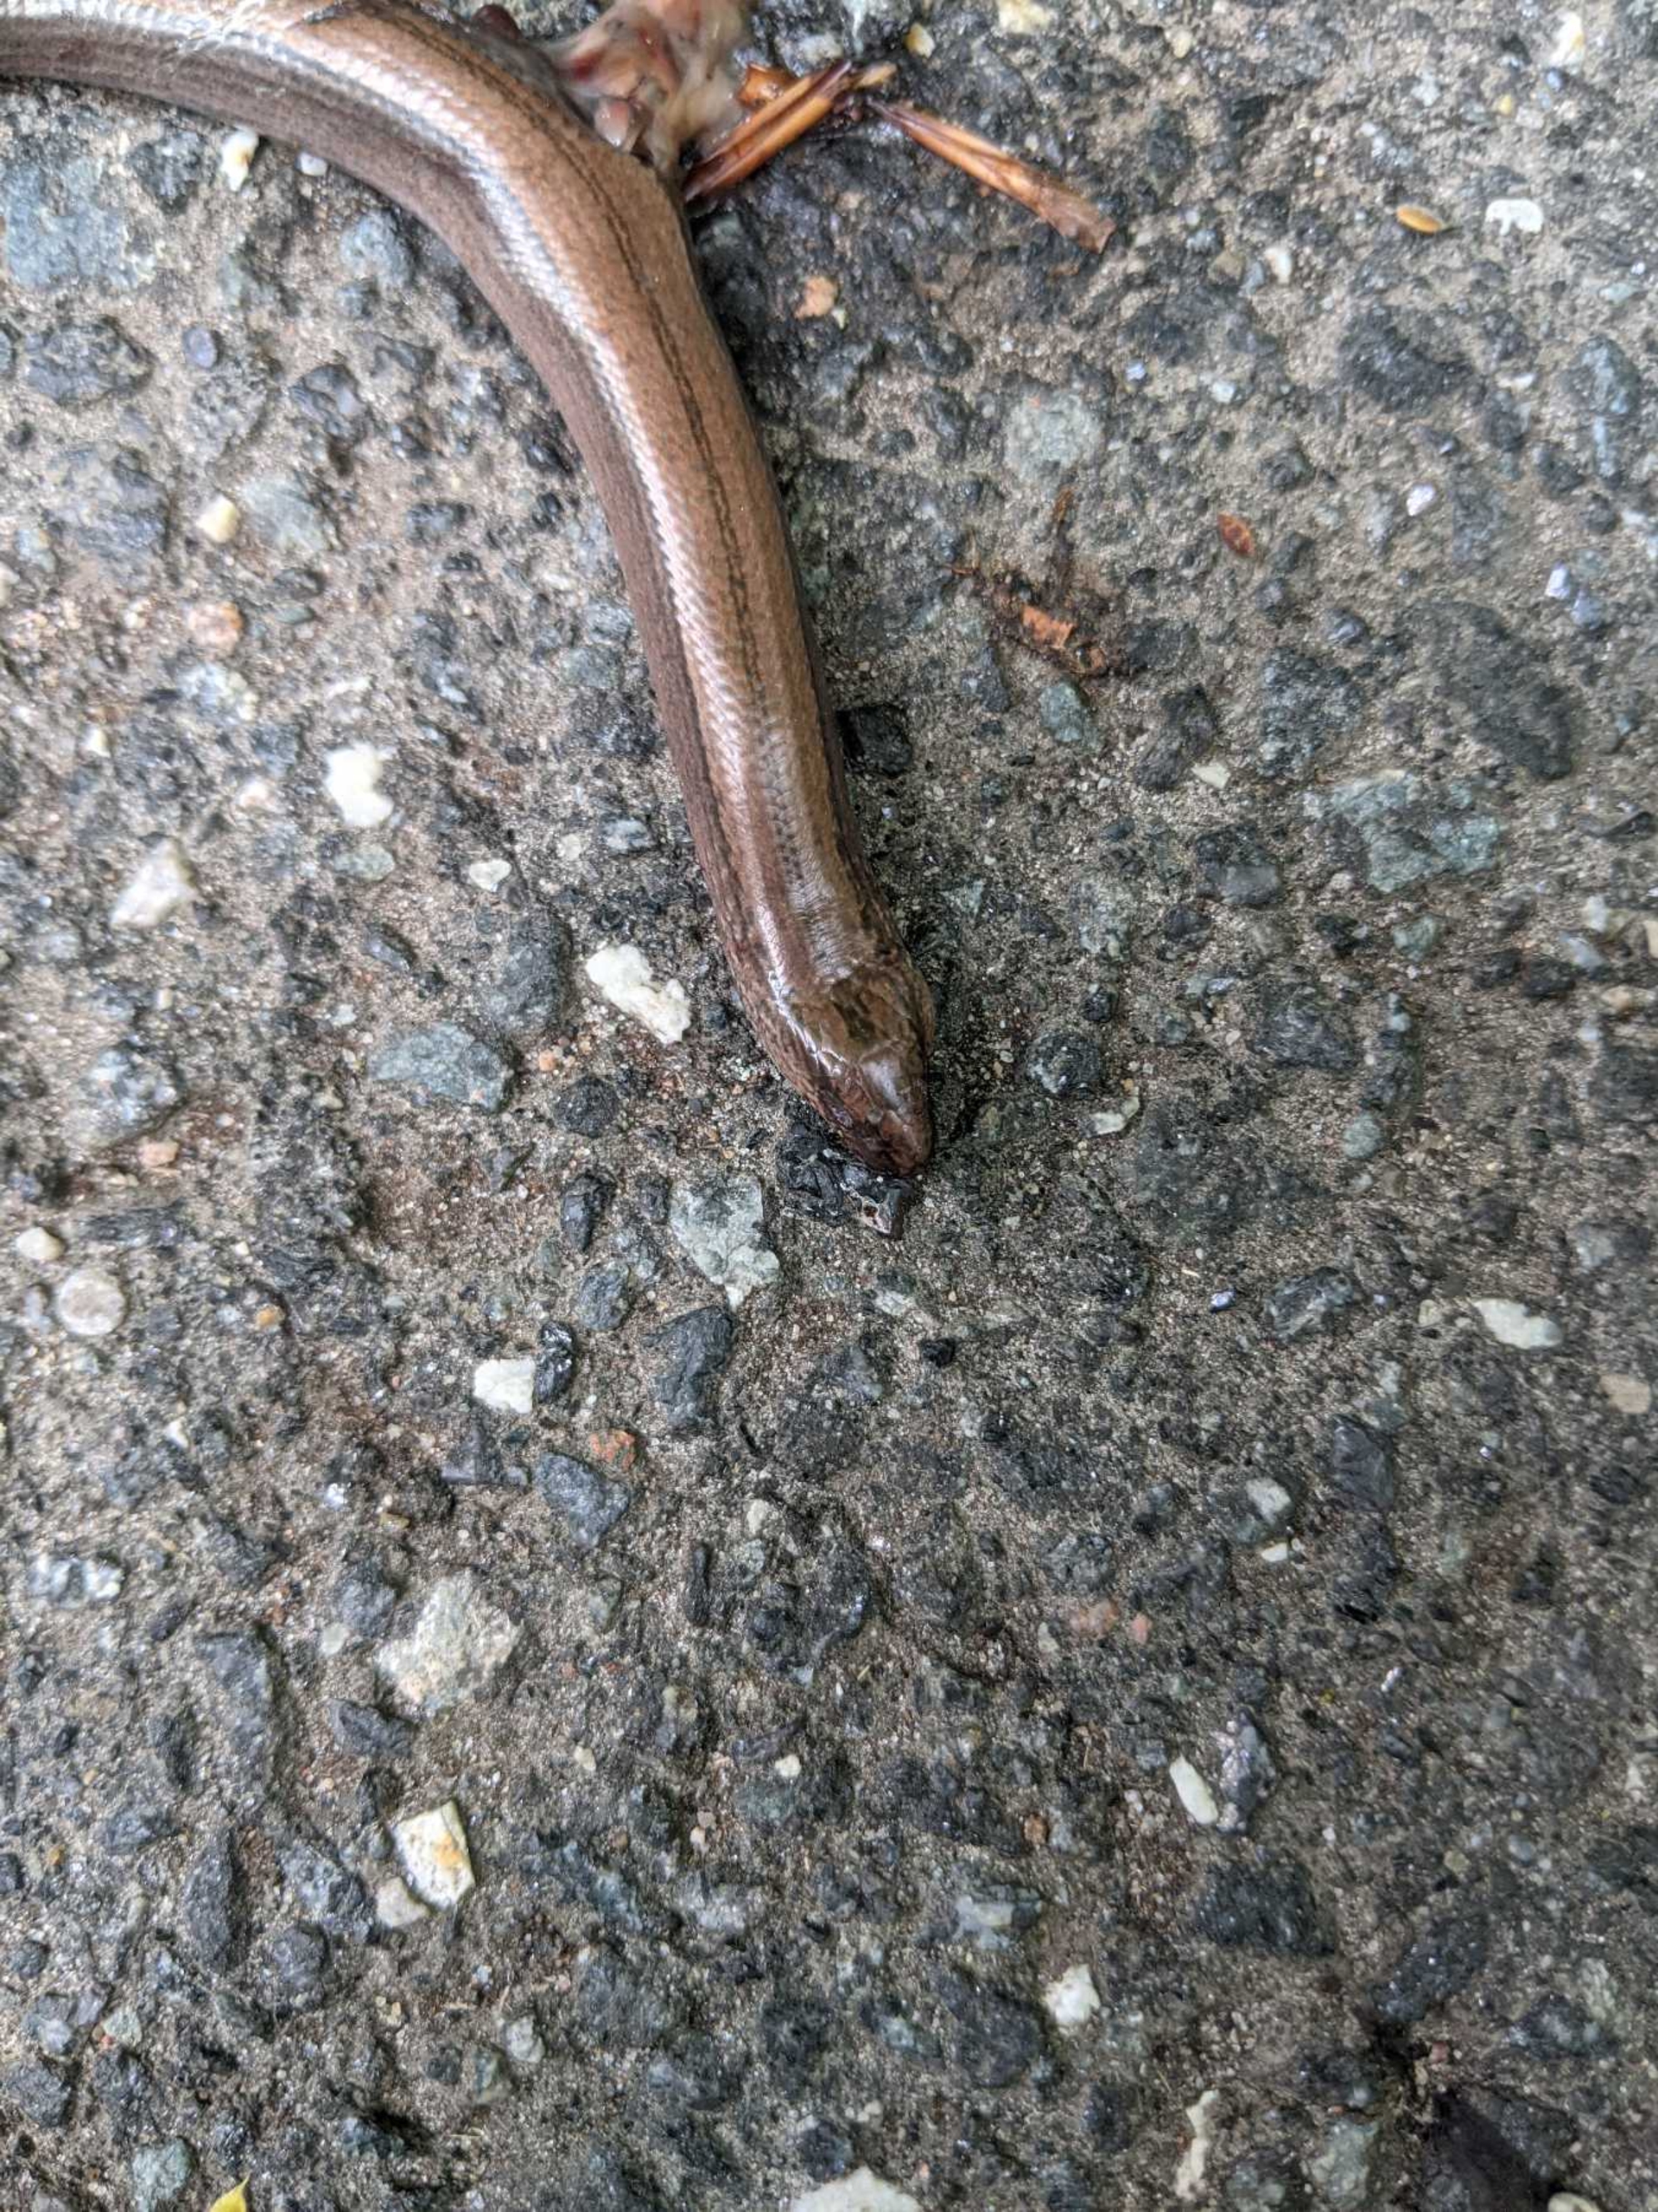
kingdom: Animalia
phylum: Chordata
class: Squamata
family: Anguidae
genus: Anguis
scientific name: Anguis fragilis
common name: Stålorm
